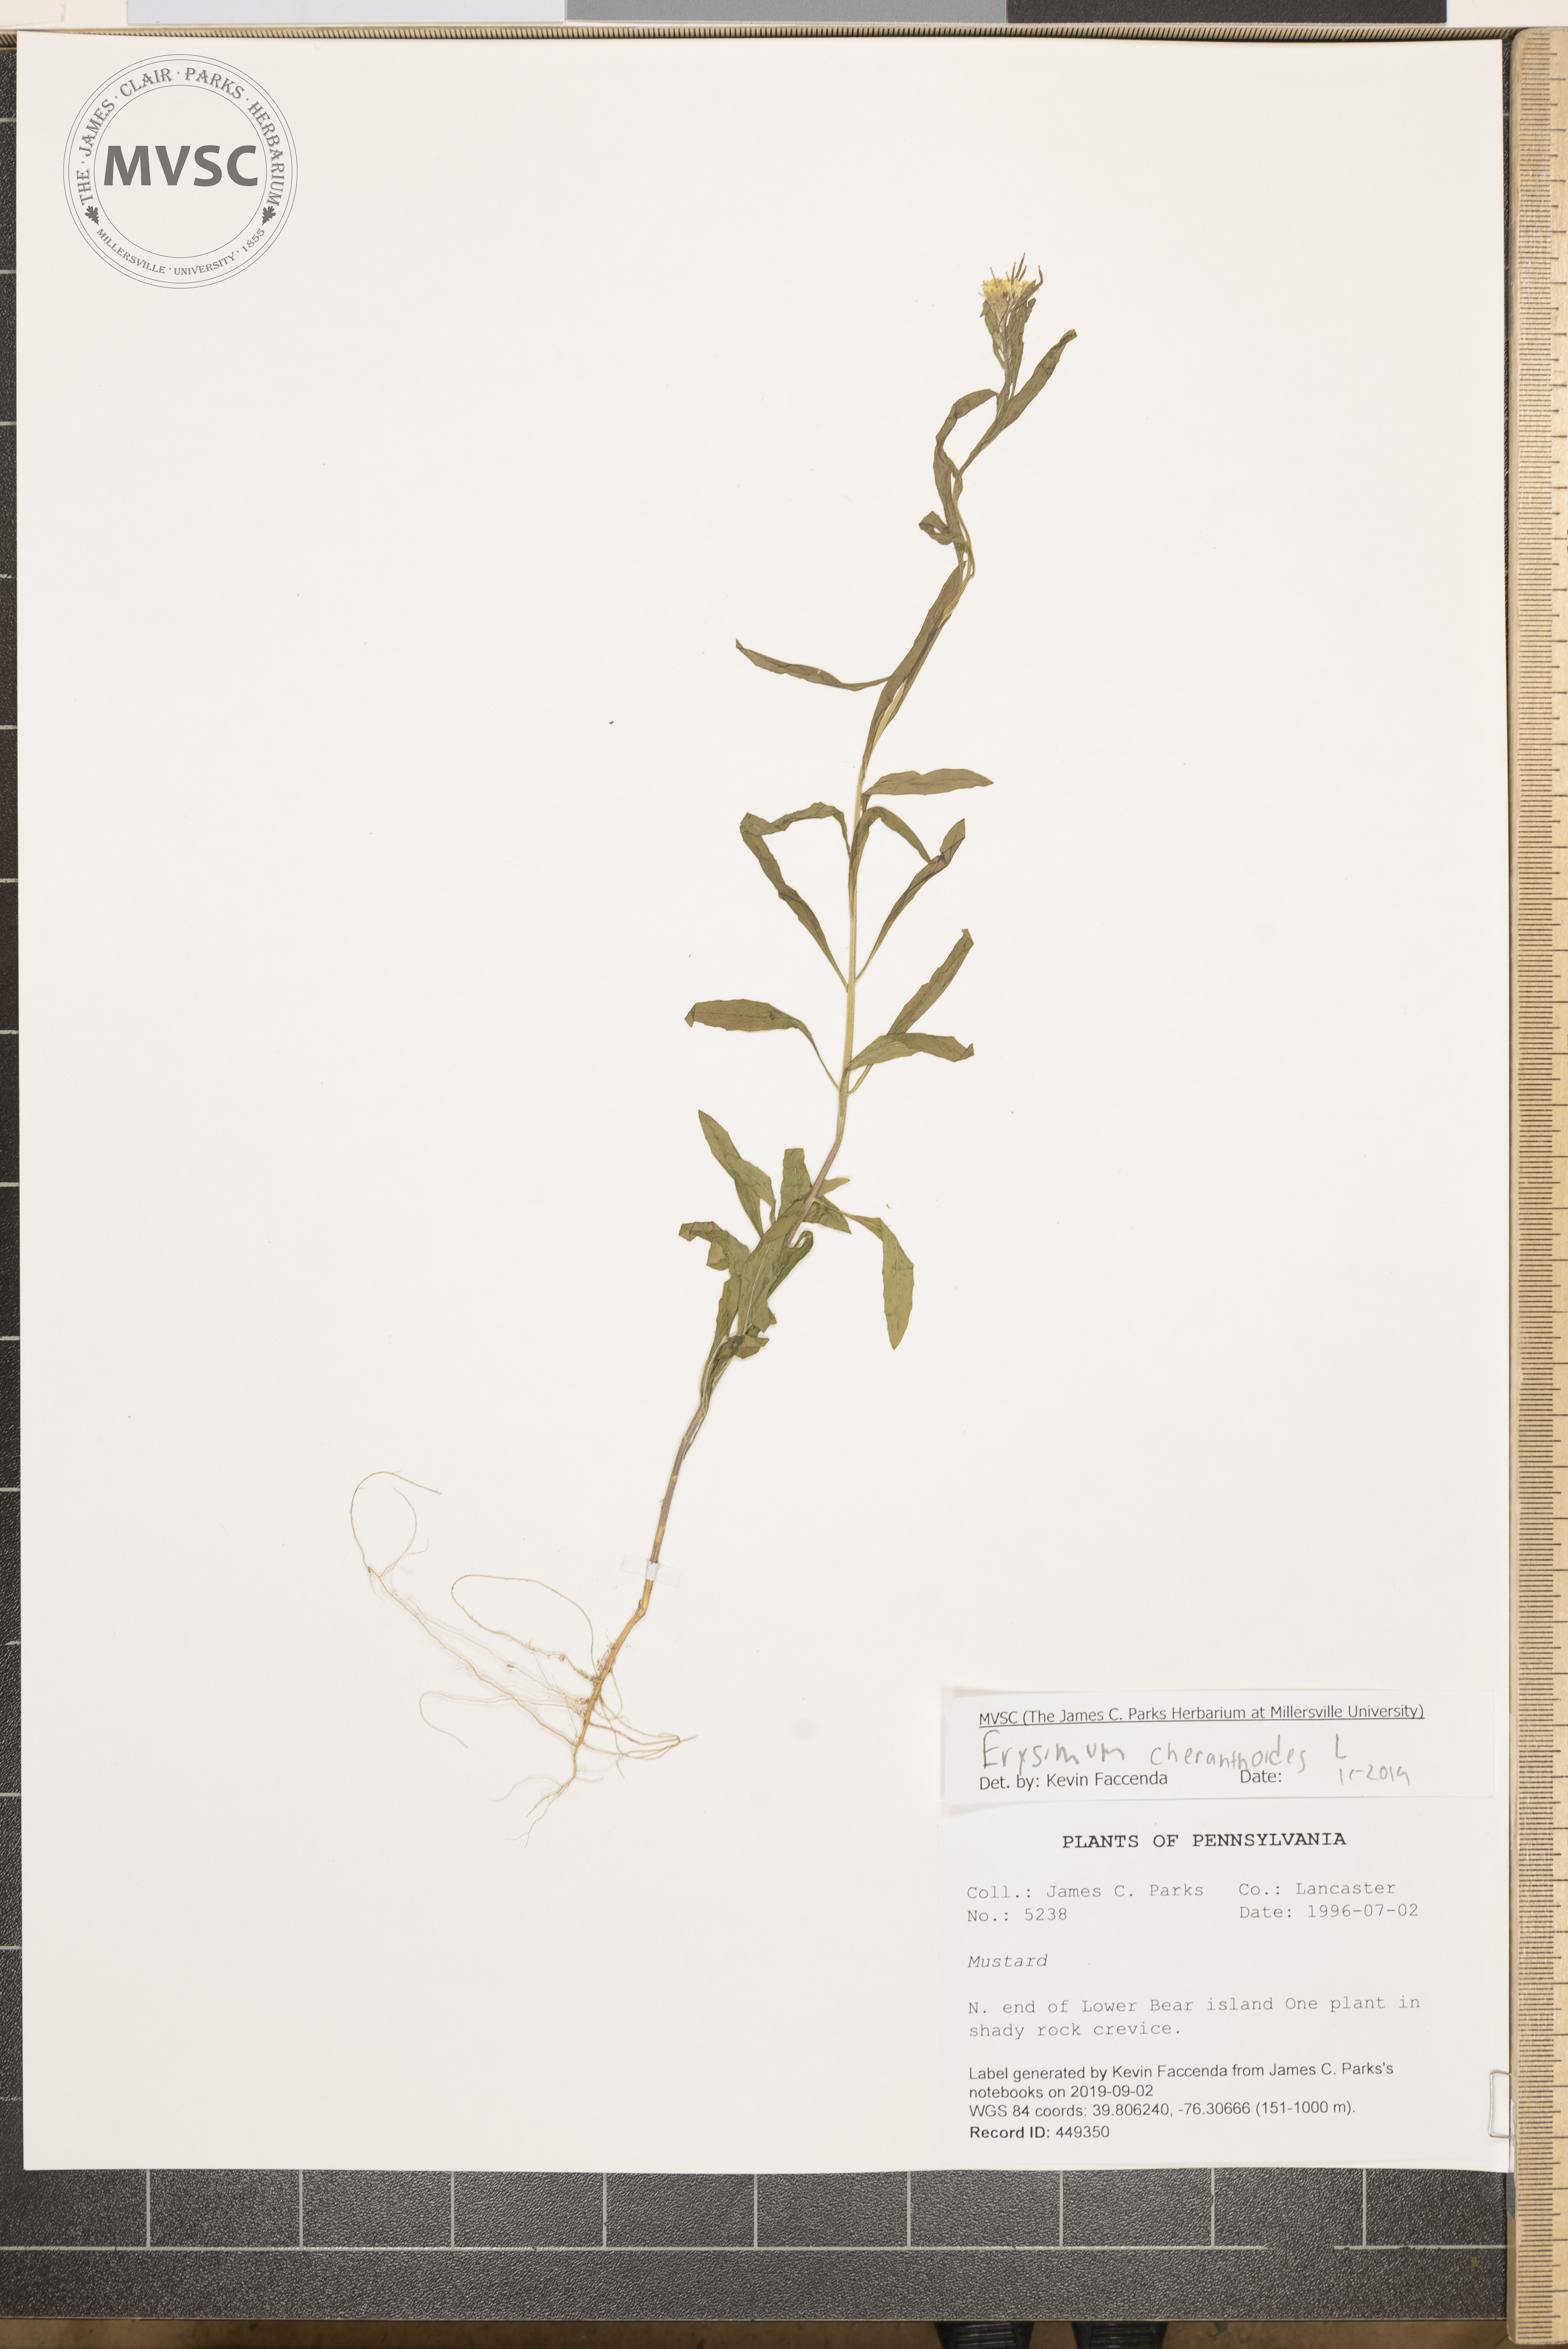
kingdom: Plantae
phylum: Tracheophyta
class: Magnoliopsida
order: Brassicales
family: Brassicaceae
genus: Erysimum
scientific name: Erysimum cheiranthoides
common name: Treacle mustard
